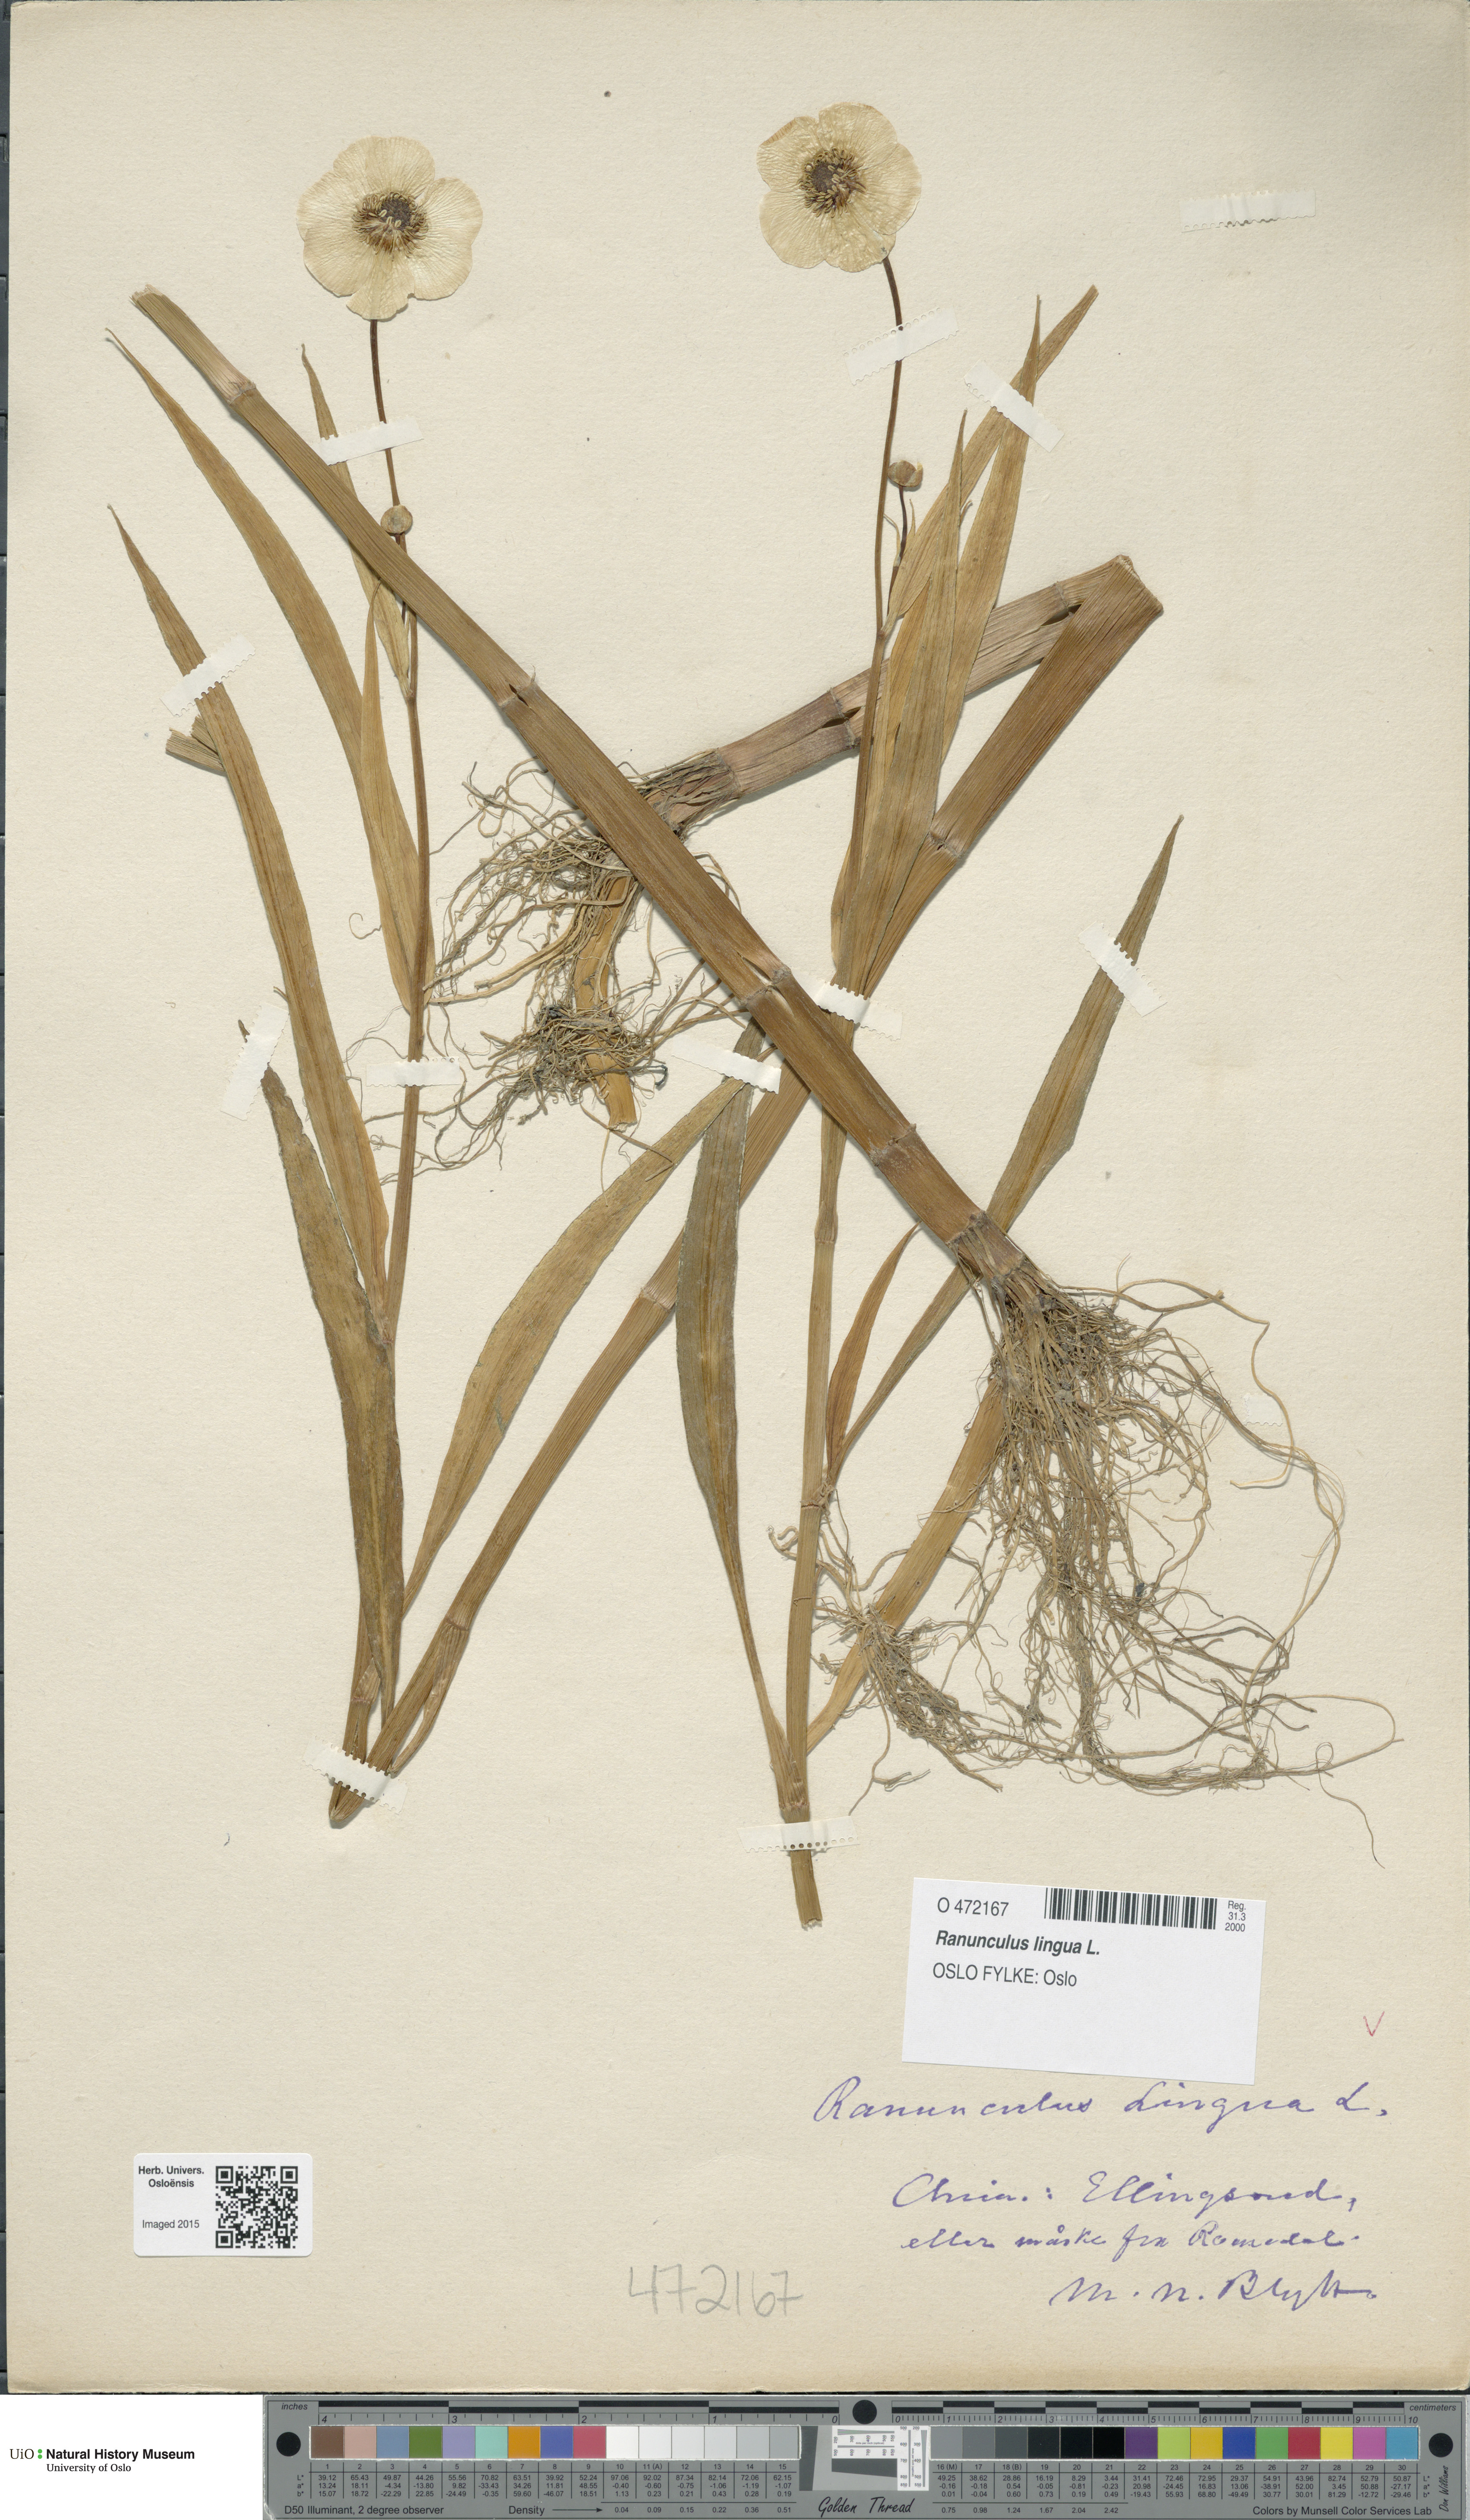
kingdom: Plantae
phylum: Tracheophyta
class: Magnoliopsida
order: Ranunculales
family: Ranunculaceae
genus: Ranunculus
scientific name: Ranunculus lingua
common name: Greater spearwort
